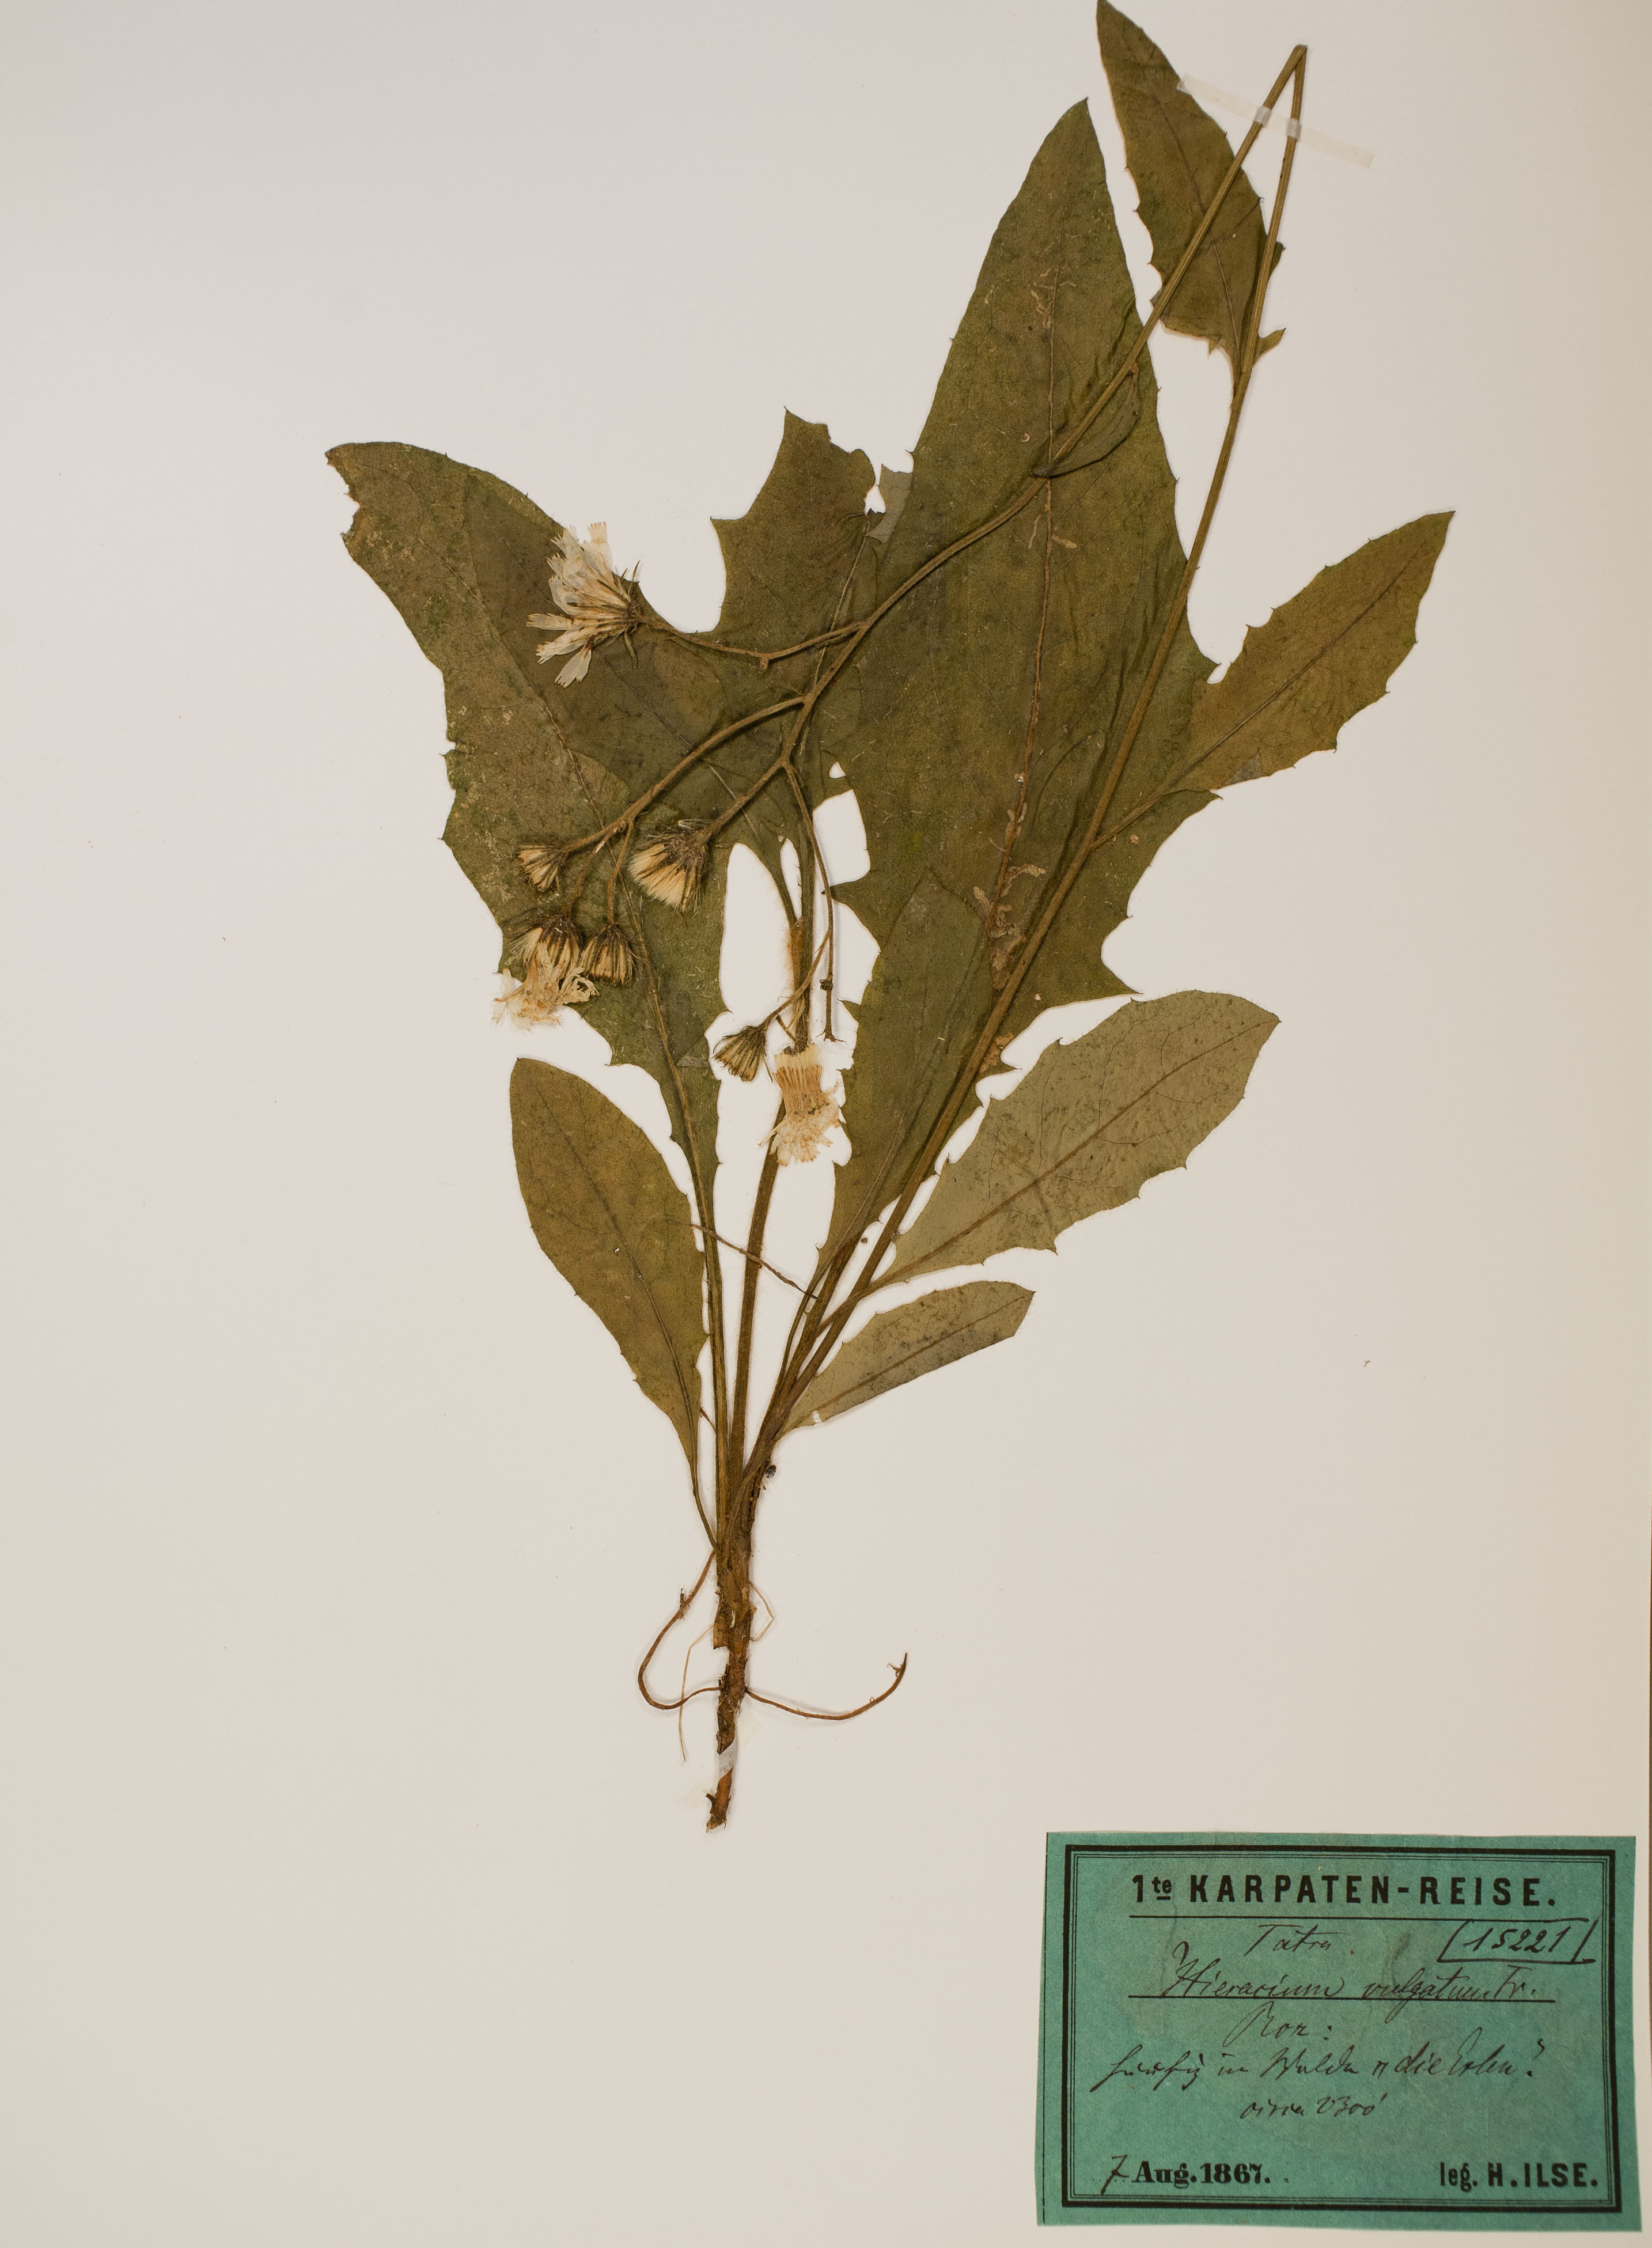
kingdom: Plantae
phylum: Tracheophyta
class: Magnoliopsida
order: Asterales
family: Asteraceae
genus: Hieracium
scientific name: Hieracium lachenalii
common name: Common hawkweed
